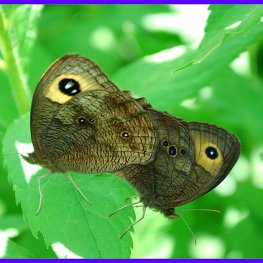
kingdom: Animalia
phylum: Arthropoda
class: Insecta
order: Lepidoptera
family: Nymphalidae
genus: Cercyonis
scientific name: Cercyonis pegala
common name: Common Wood-Nymph
